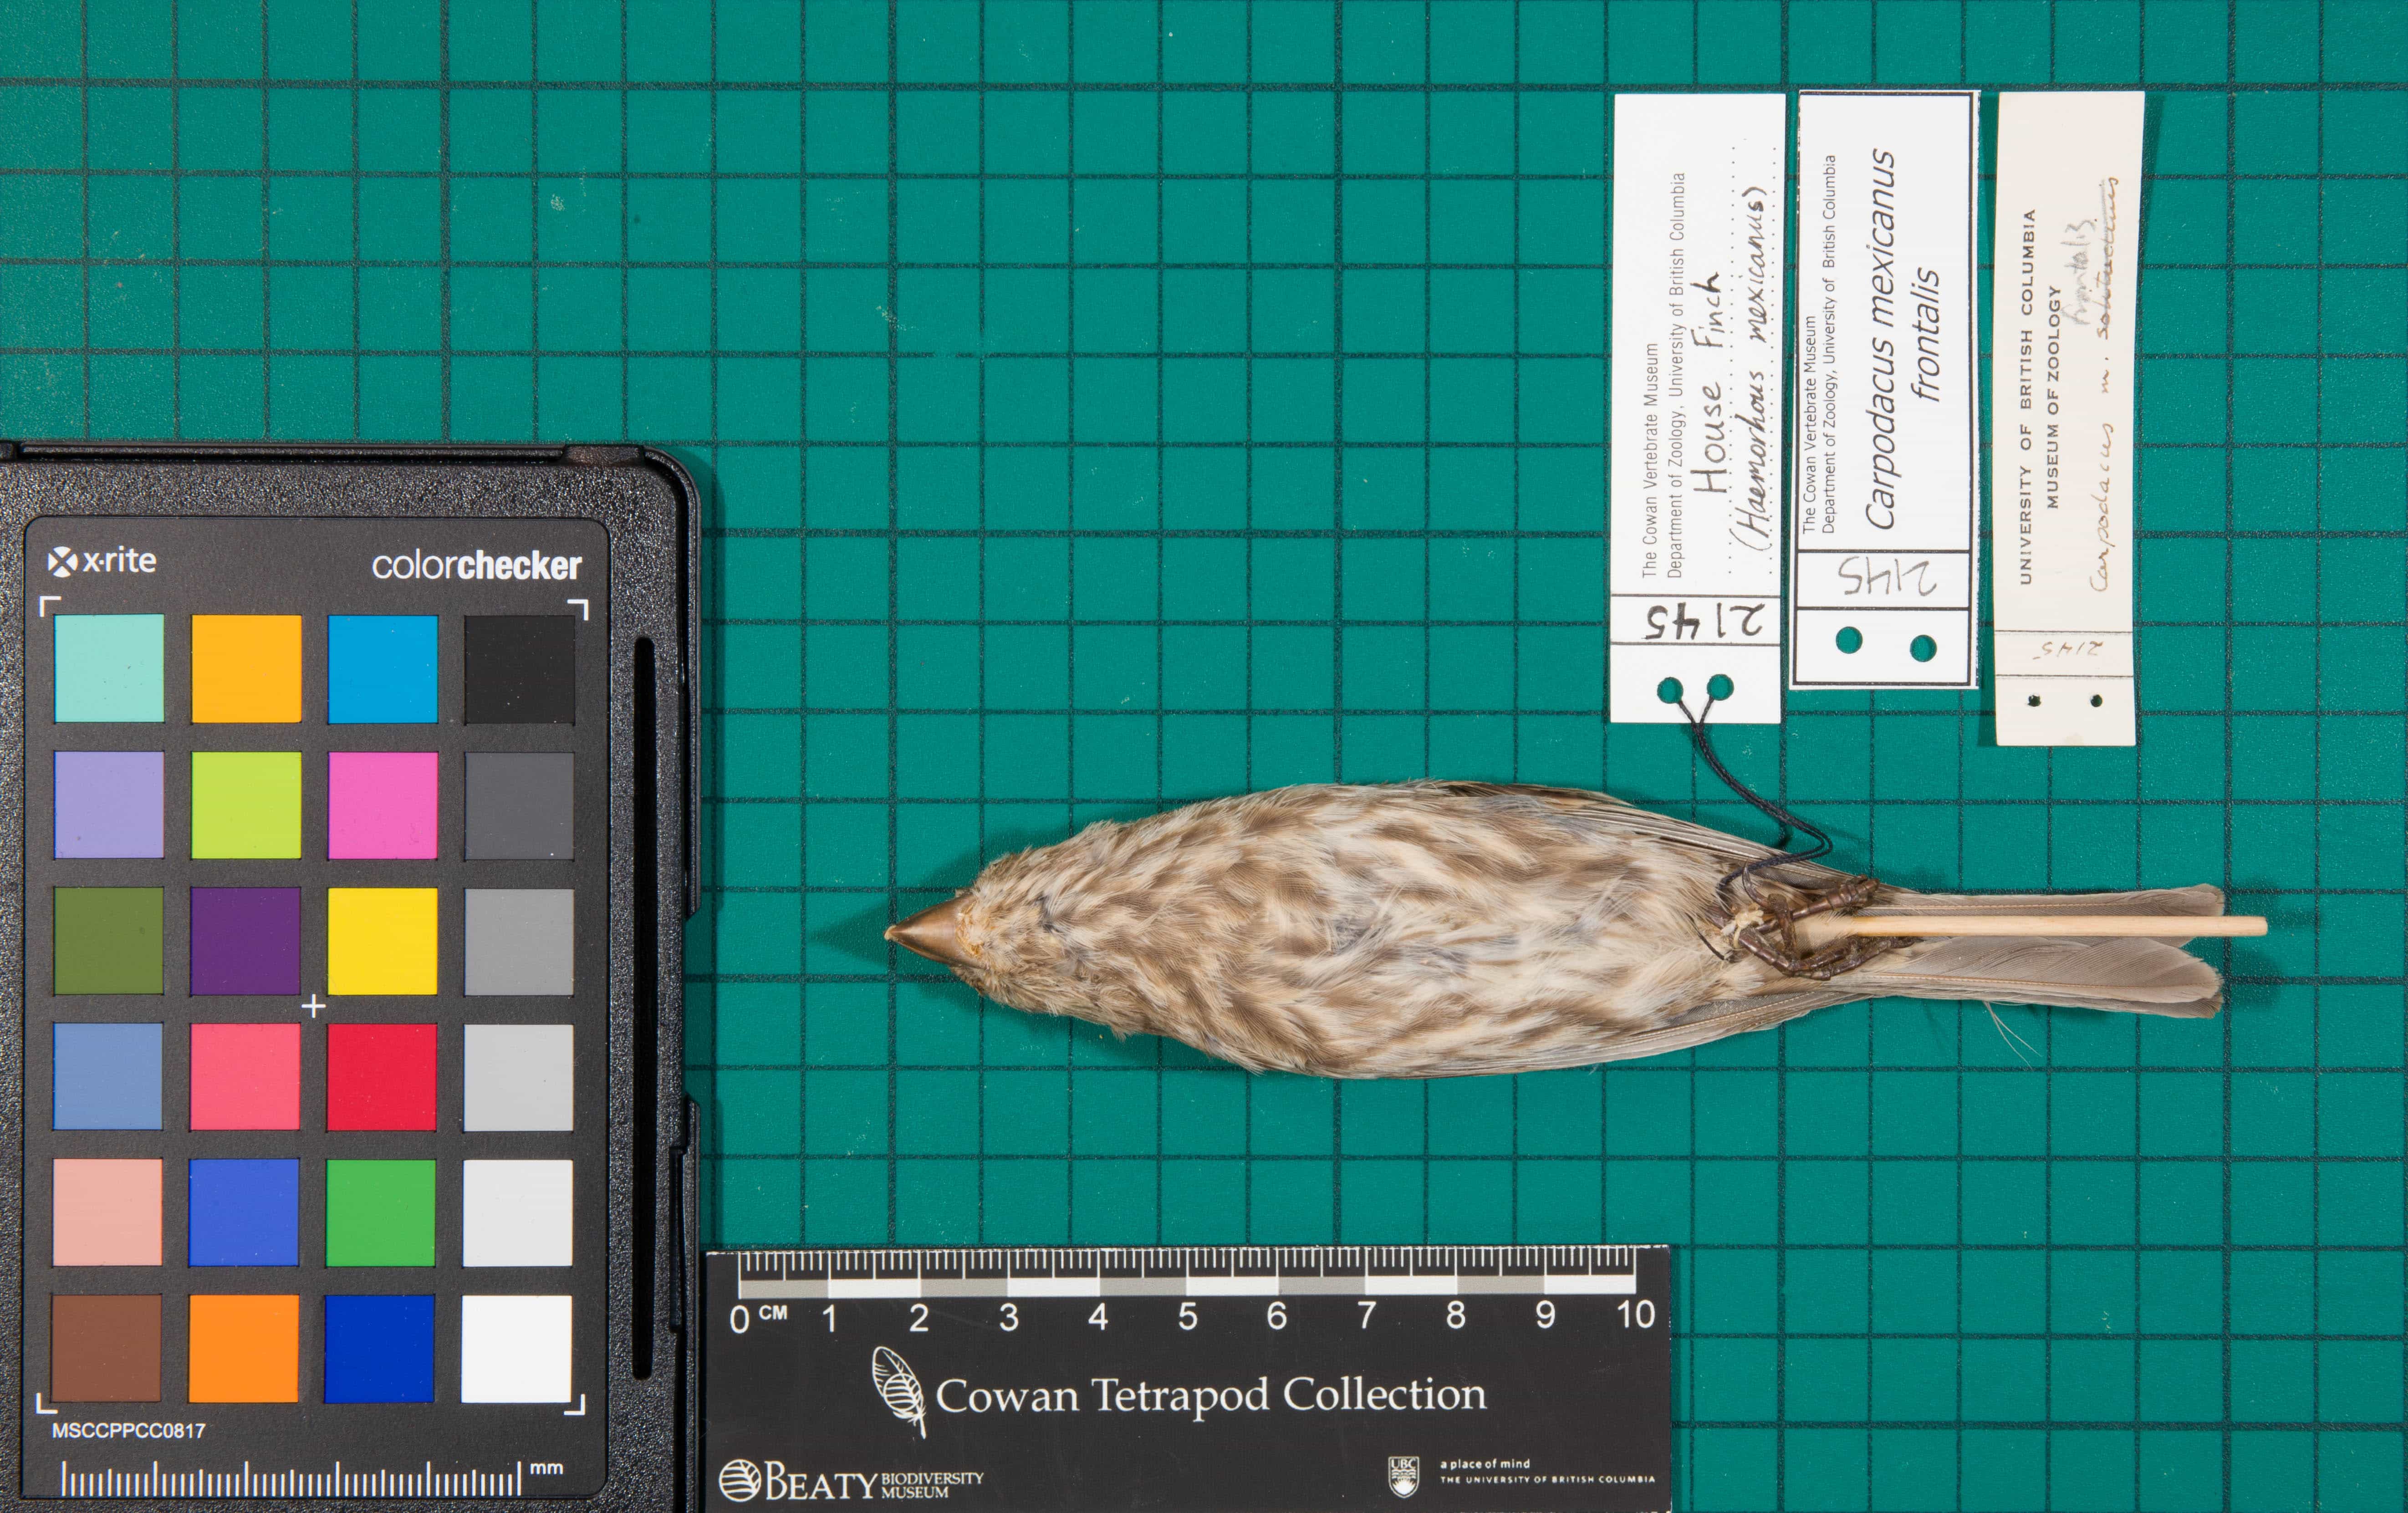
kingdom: Animalia
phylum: Chordata
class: Aves
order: Passeriformes
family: Fringillidae
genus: Haemorhous
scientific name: Haemorhous mexicanus
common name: House Finch
